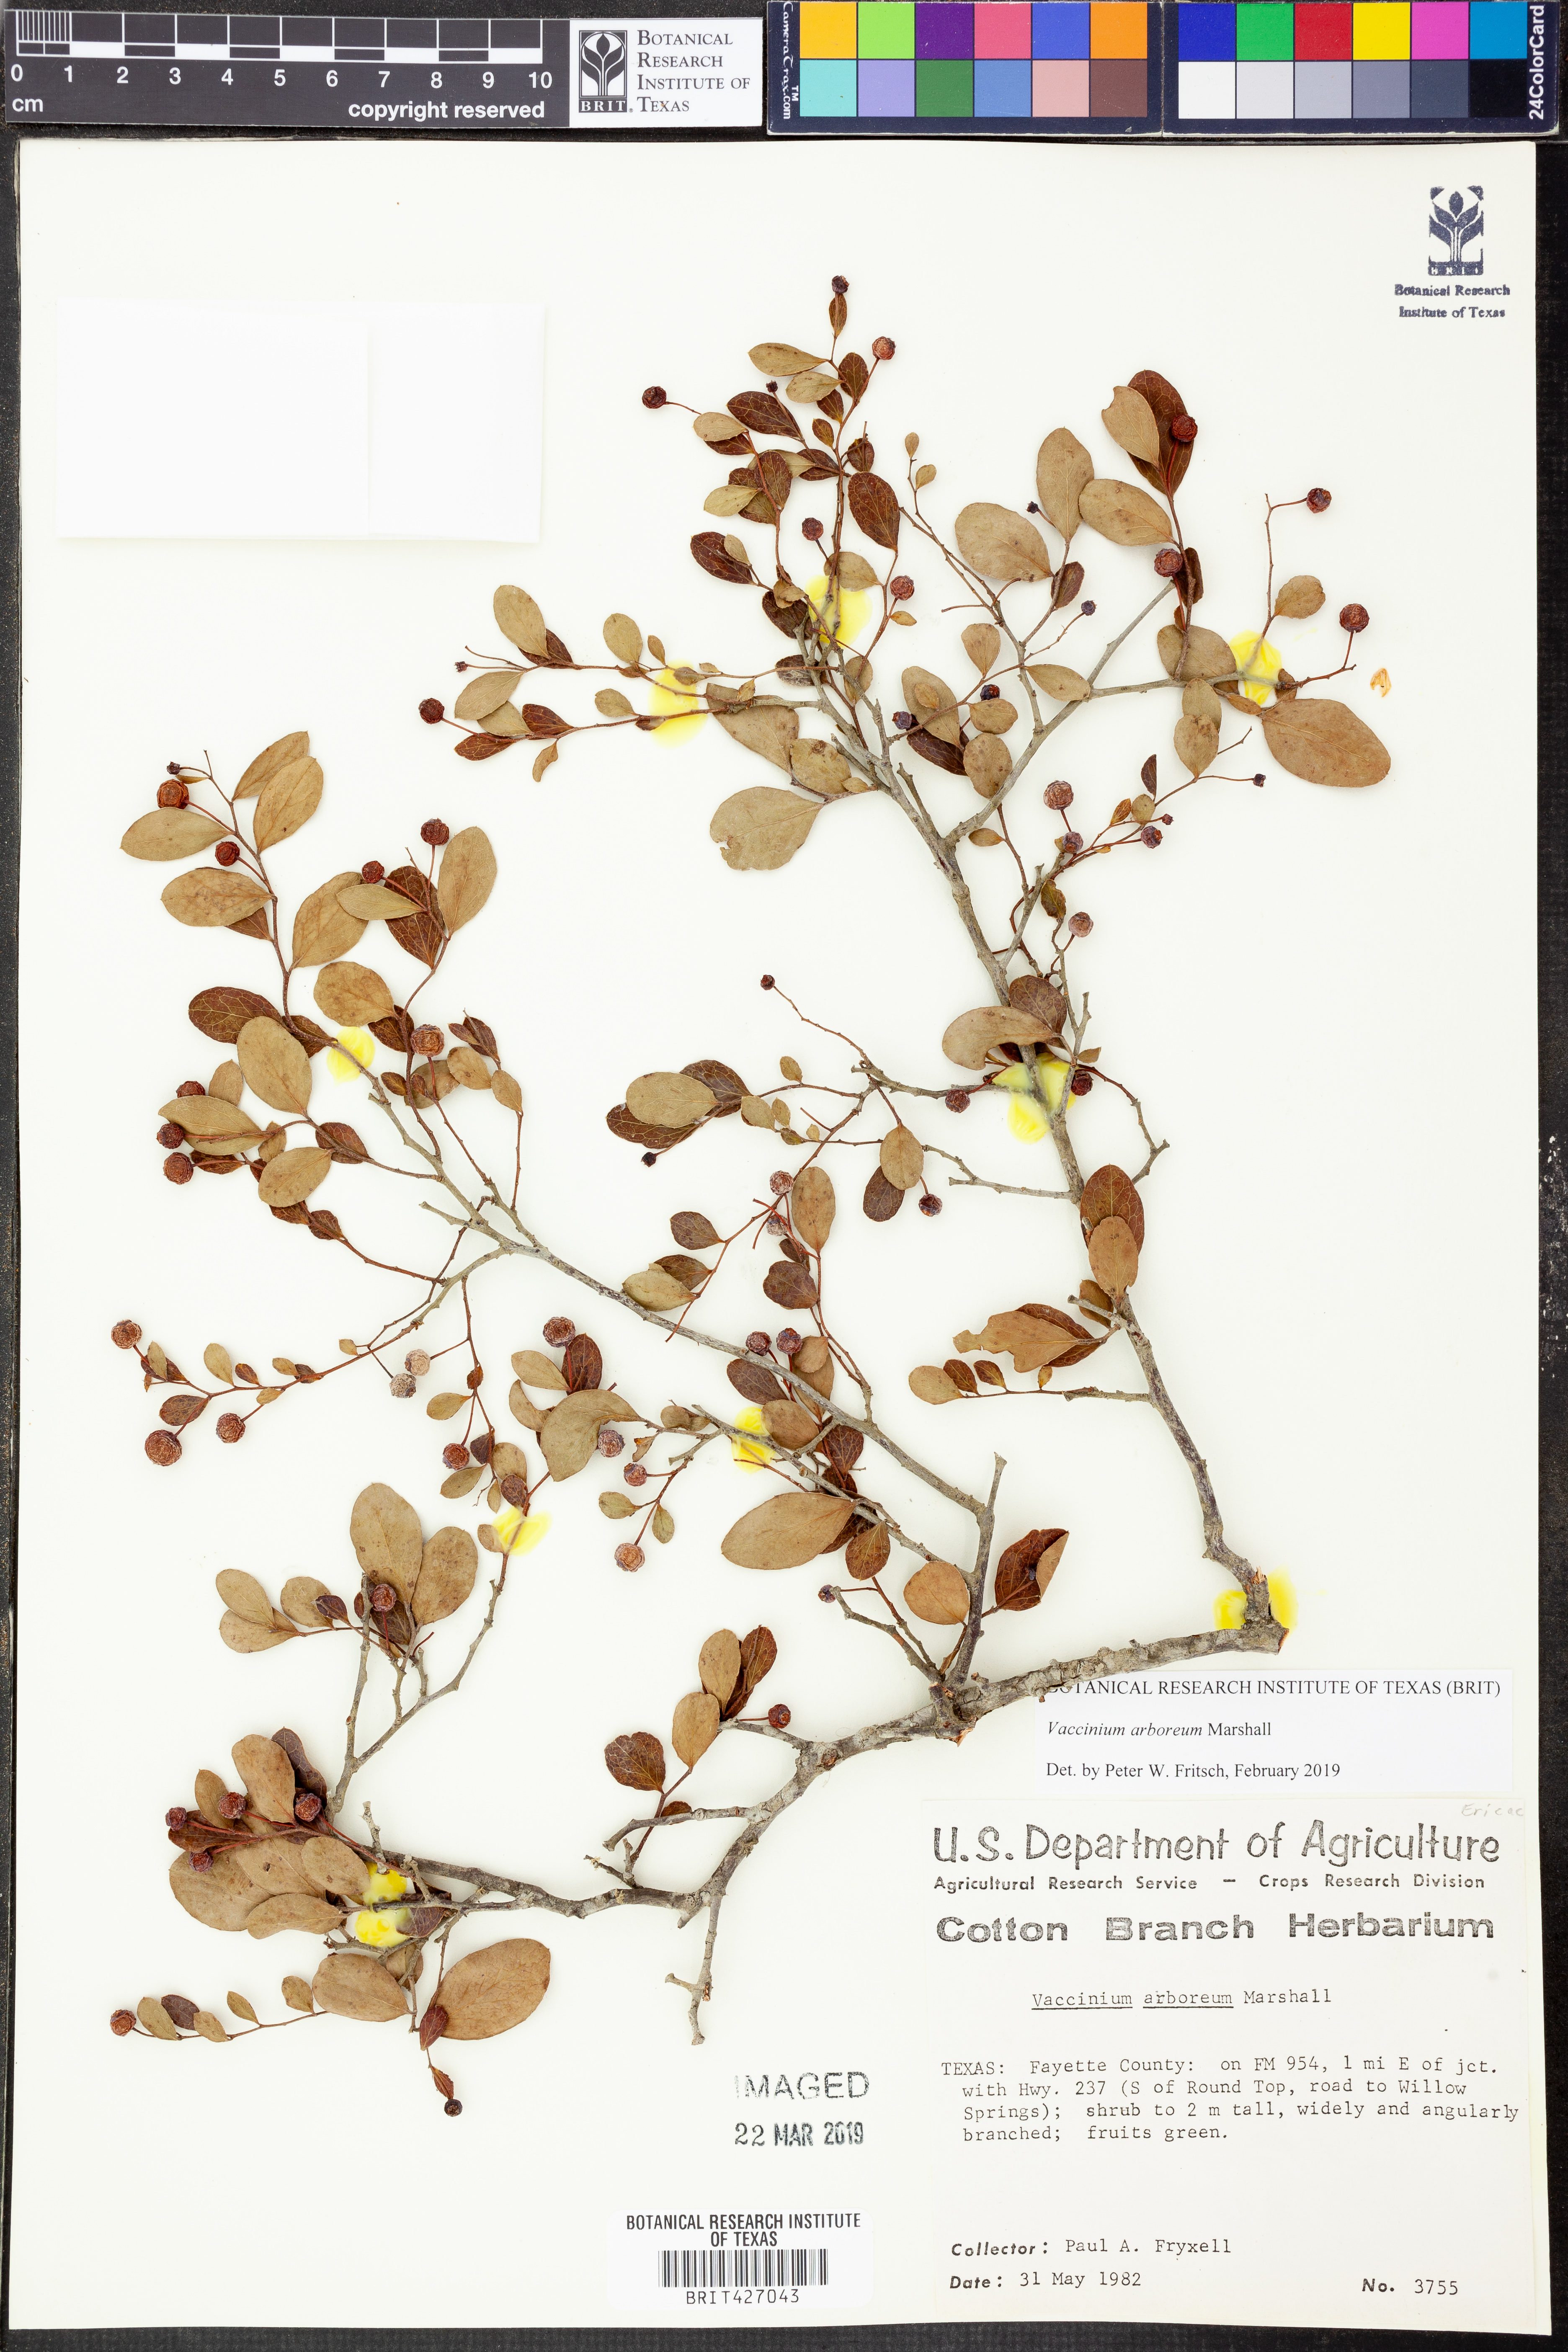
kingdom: Plantae
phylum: Tracheophyta
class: Magnoliopsida
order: Ericales
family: Ericaceae
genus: Vaccinium
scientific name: Vaccinium arboreum
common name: Farkleberry
